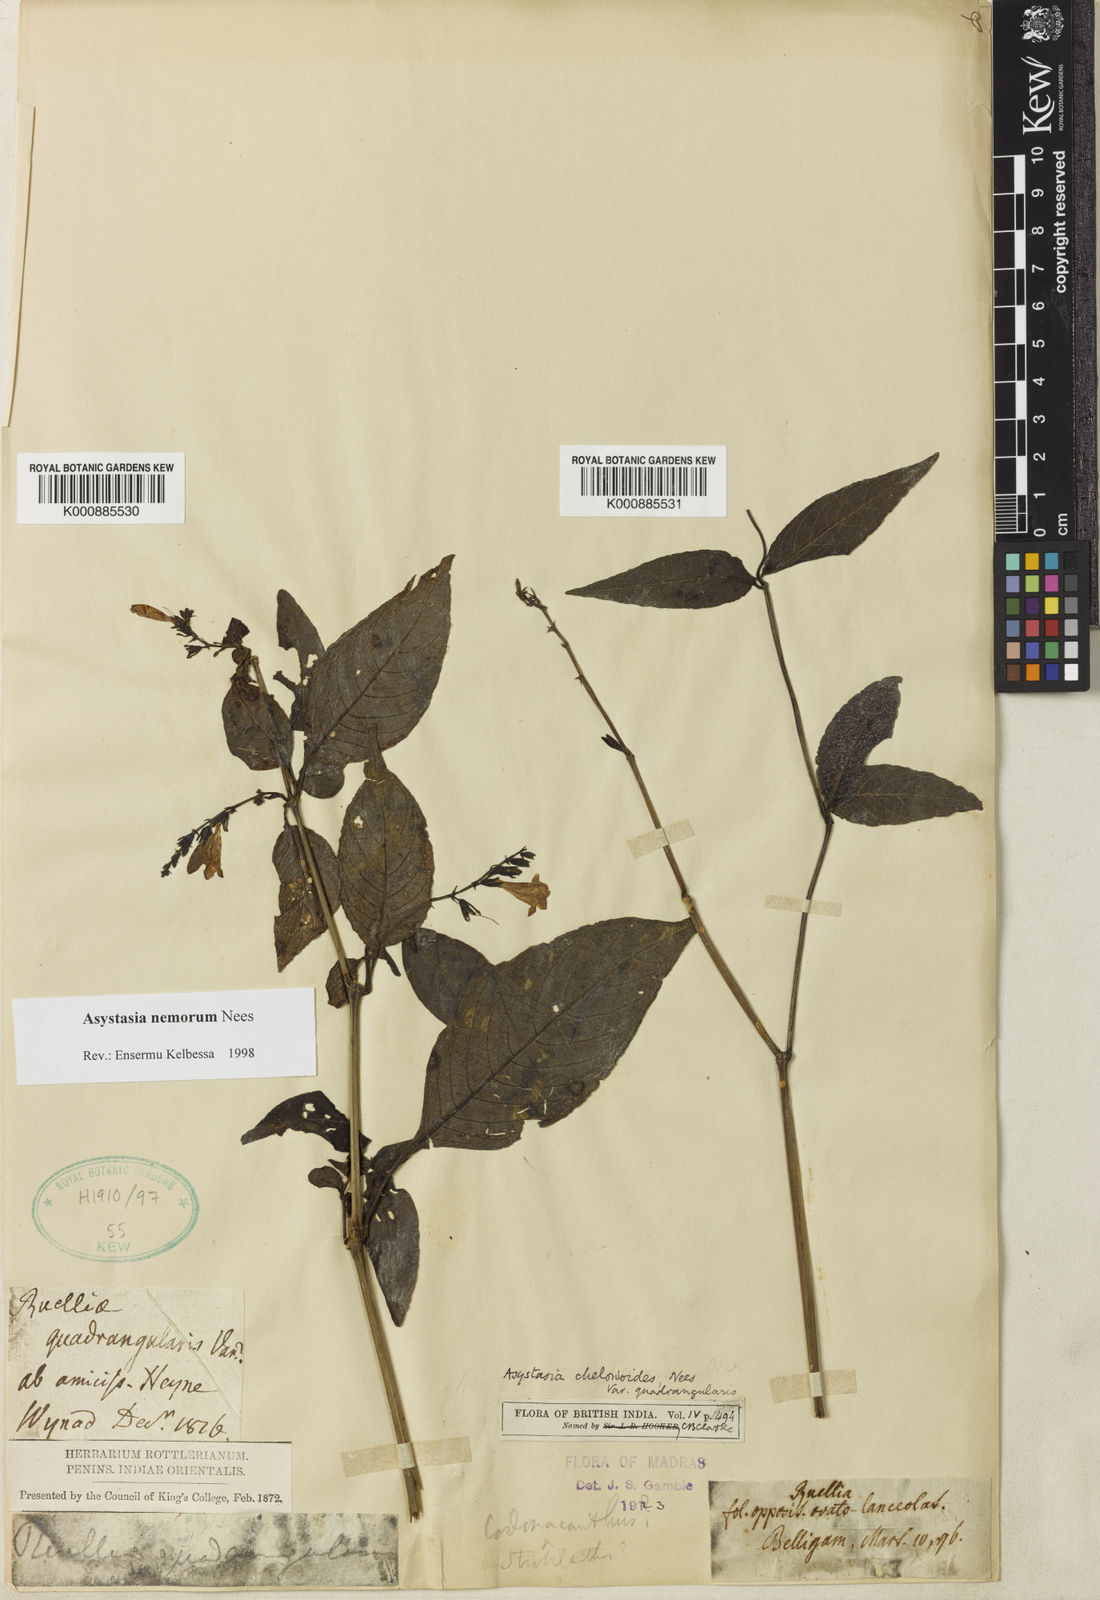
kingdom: Plantae
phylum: Tracheophyta
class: Magnoliopsida
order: Lamiales
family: Acanthaceae
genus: Asystasia
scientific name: Asystasia nemorum
